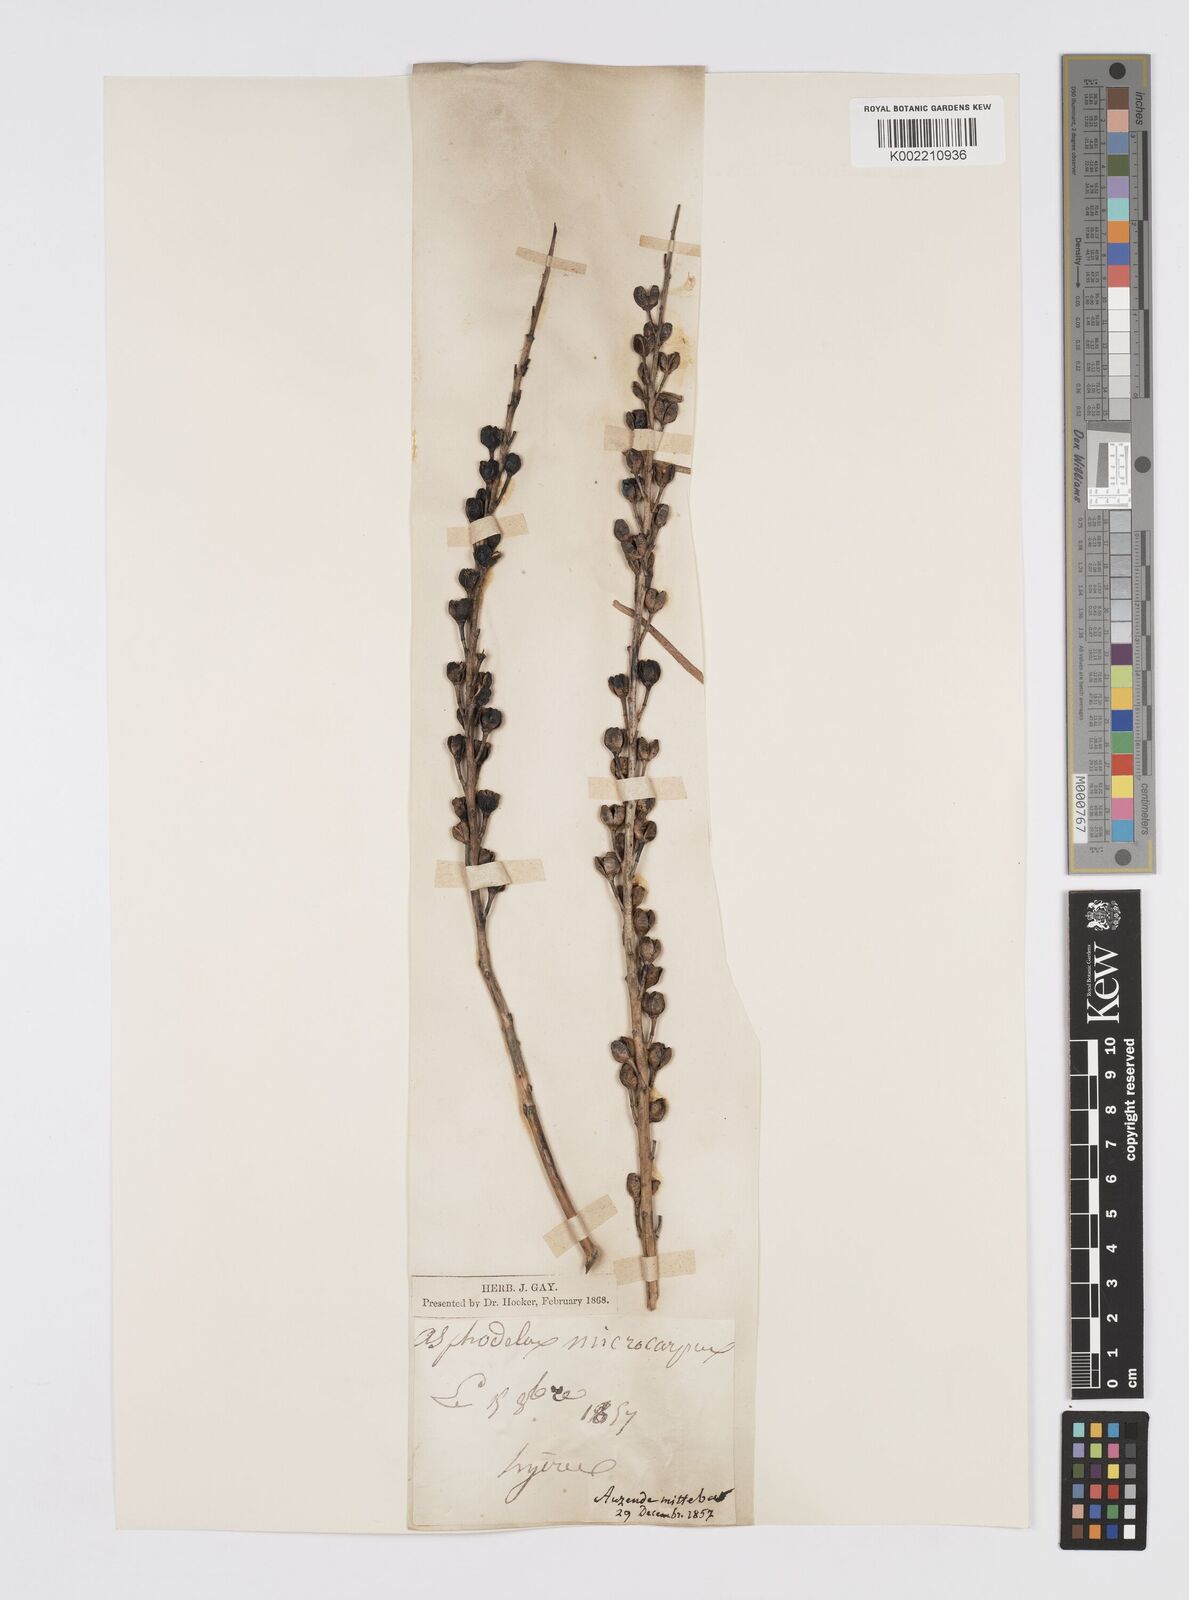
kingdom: Plantae
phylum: Tracheophyta
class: Liliopsida
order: Asparagales
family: Asphodelaceae
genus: Asphodelus
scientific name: Asphodelus ramosus
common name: Silverrod
